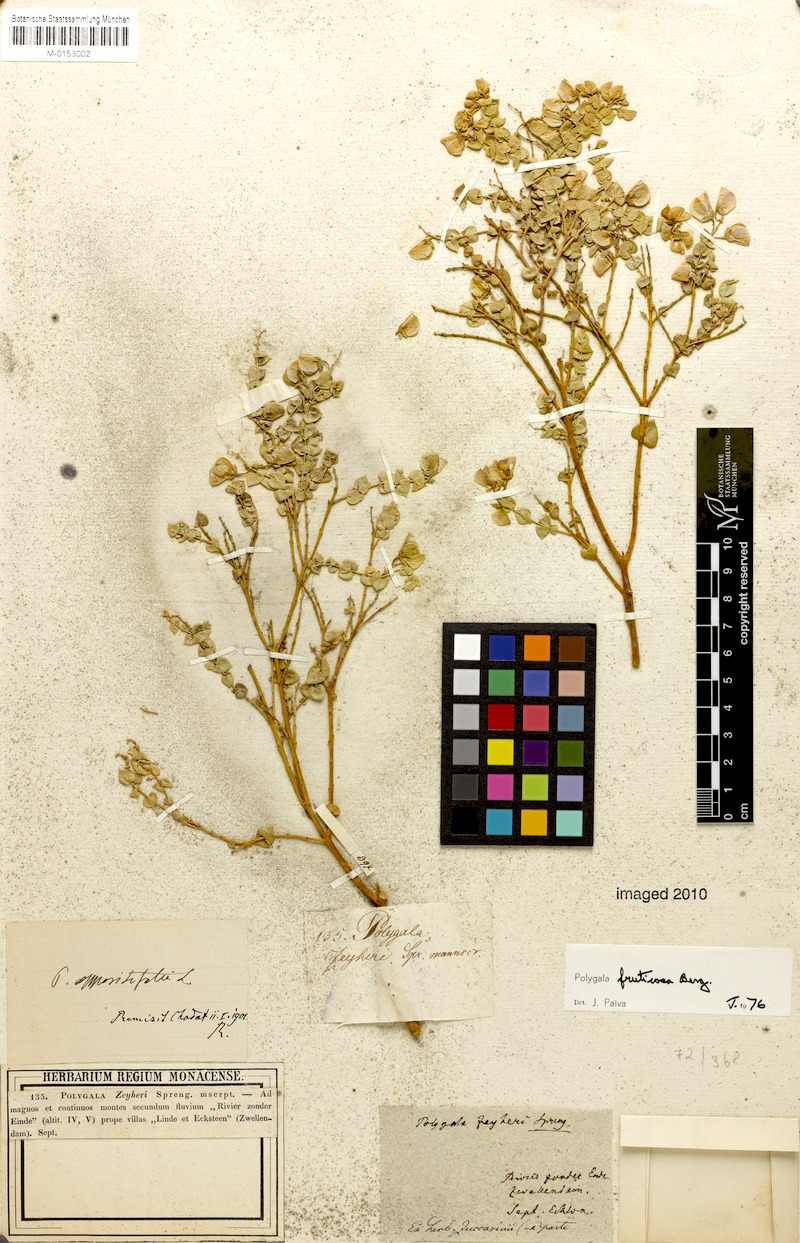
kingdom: Plantae
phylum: Tracheophyta
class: Magnoliopsida
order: Fabales
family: Polygalaceae
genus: Polygala
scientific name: Polygala fruticosa
